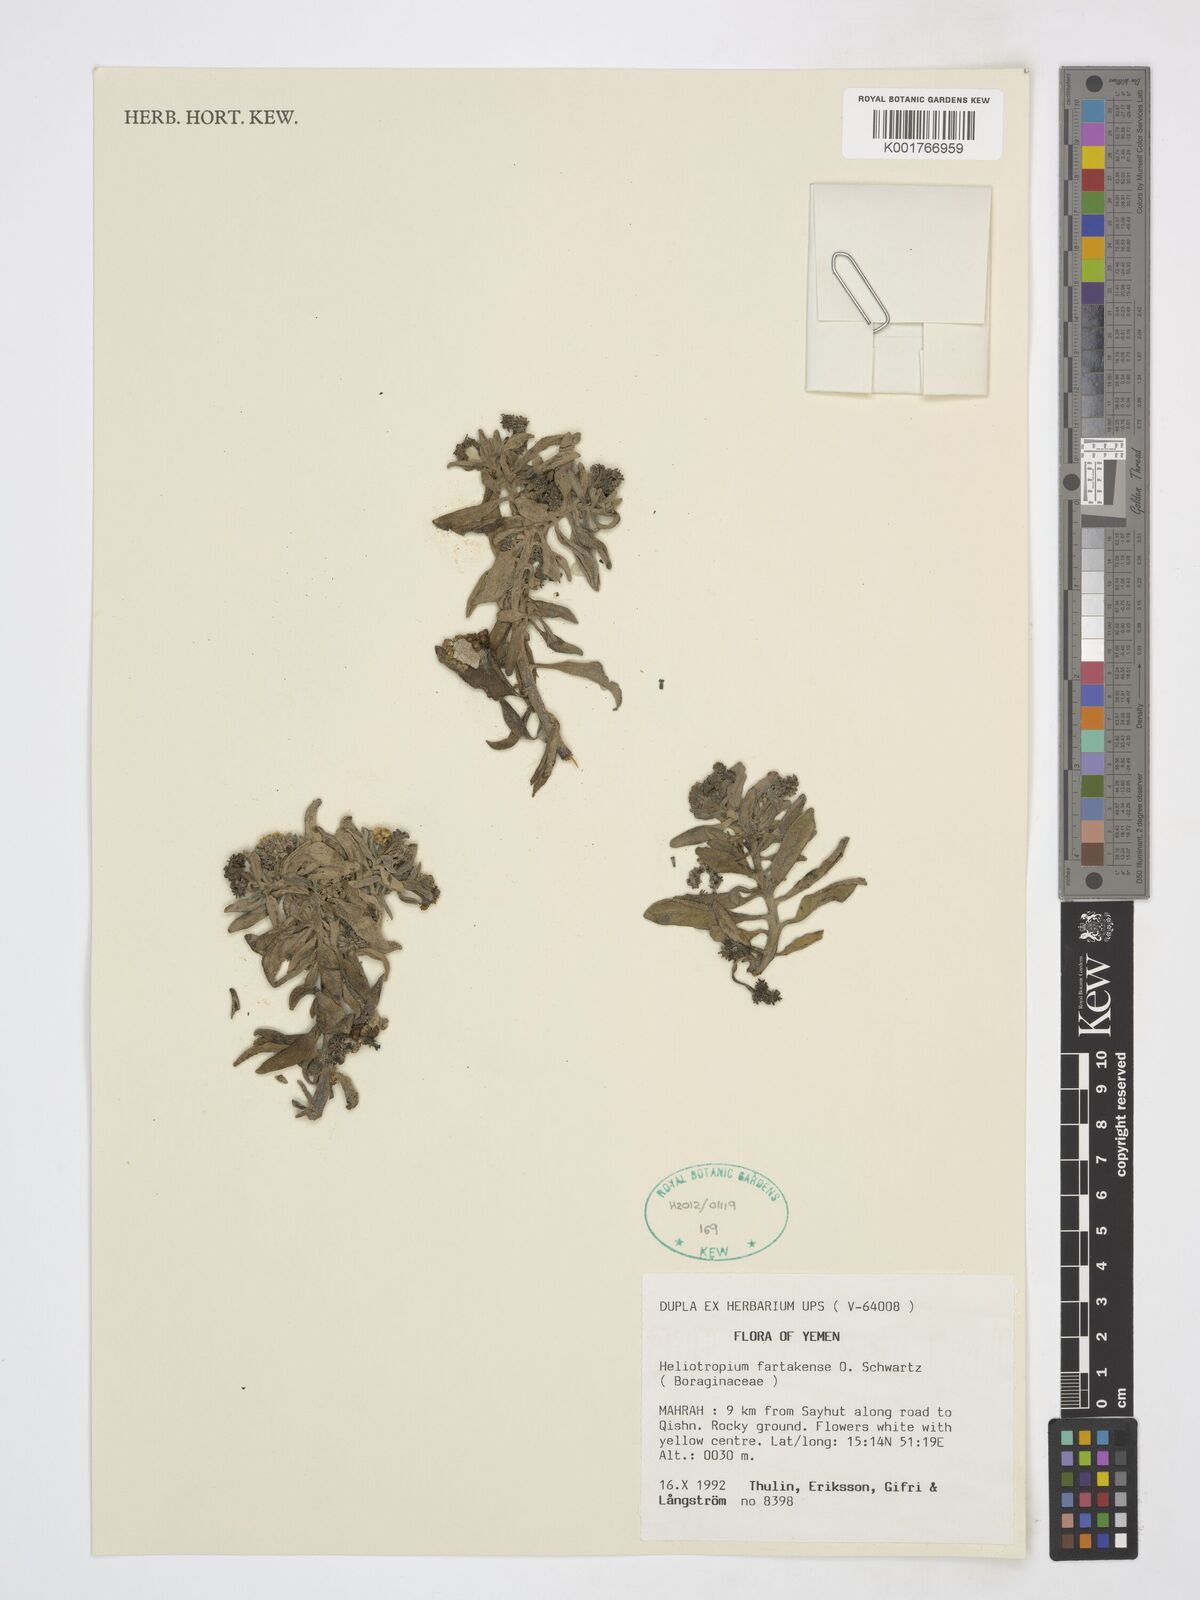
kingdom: Plantae
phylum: Tracheophyta
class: Magnoliopsida
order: Boraginales
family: Heliotropiaceae
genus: Heliotropium
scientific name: Heliotropium bacciferum
